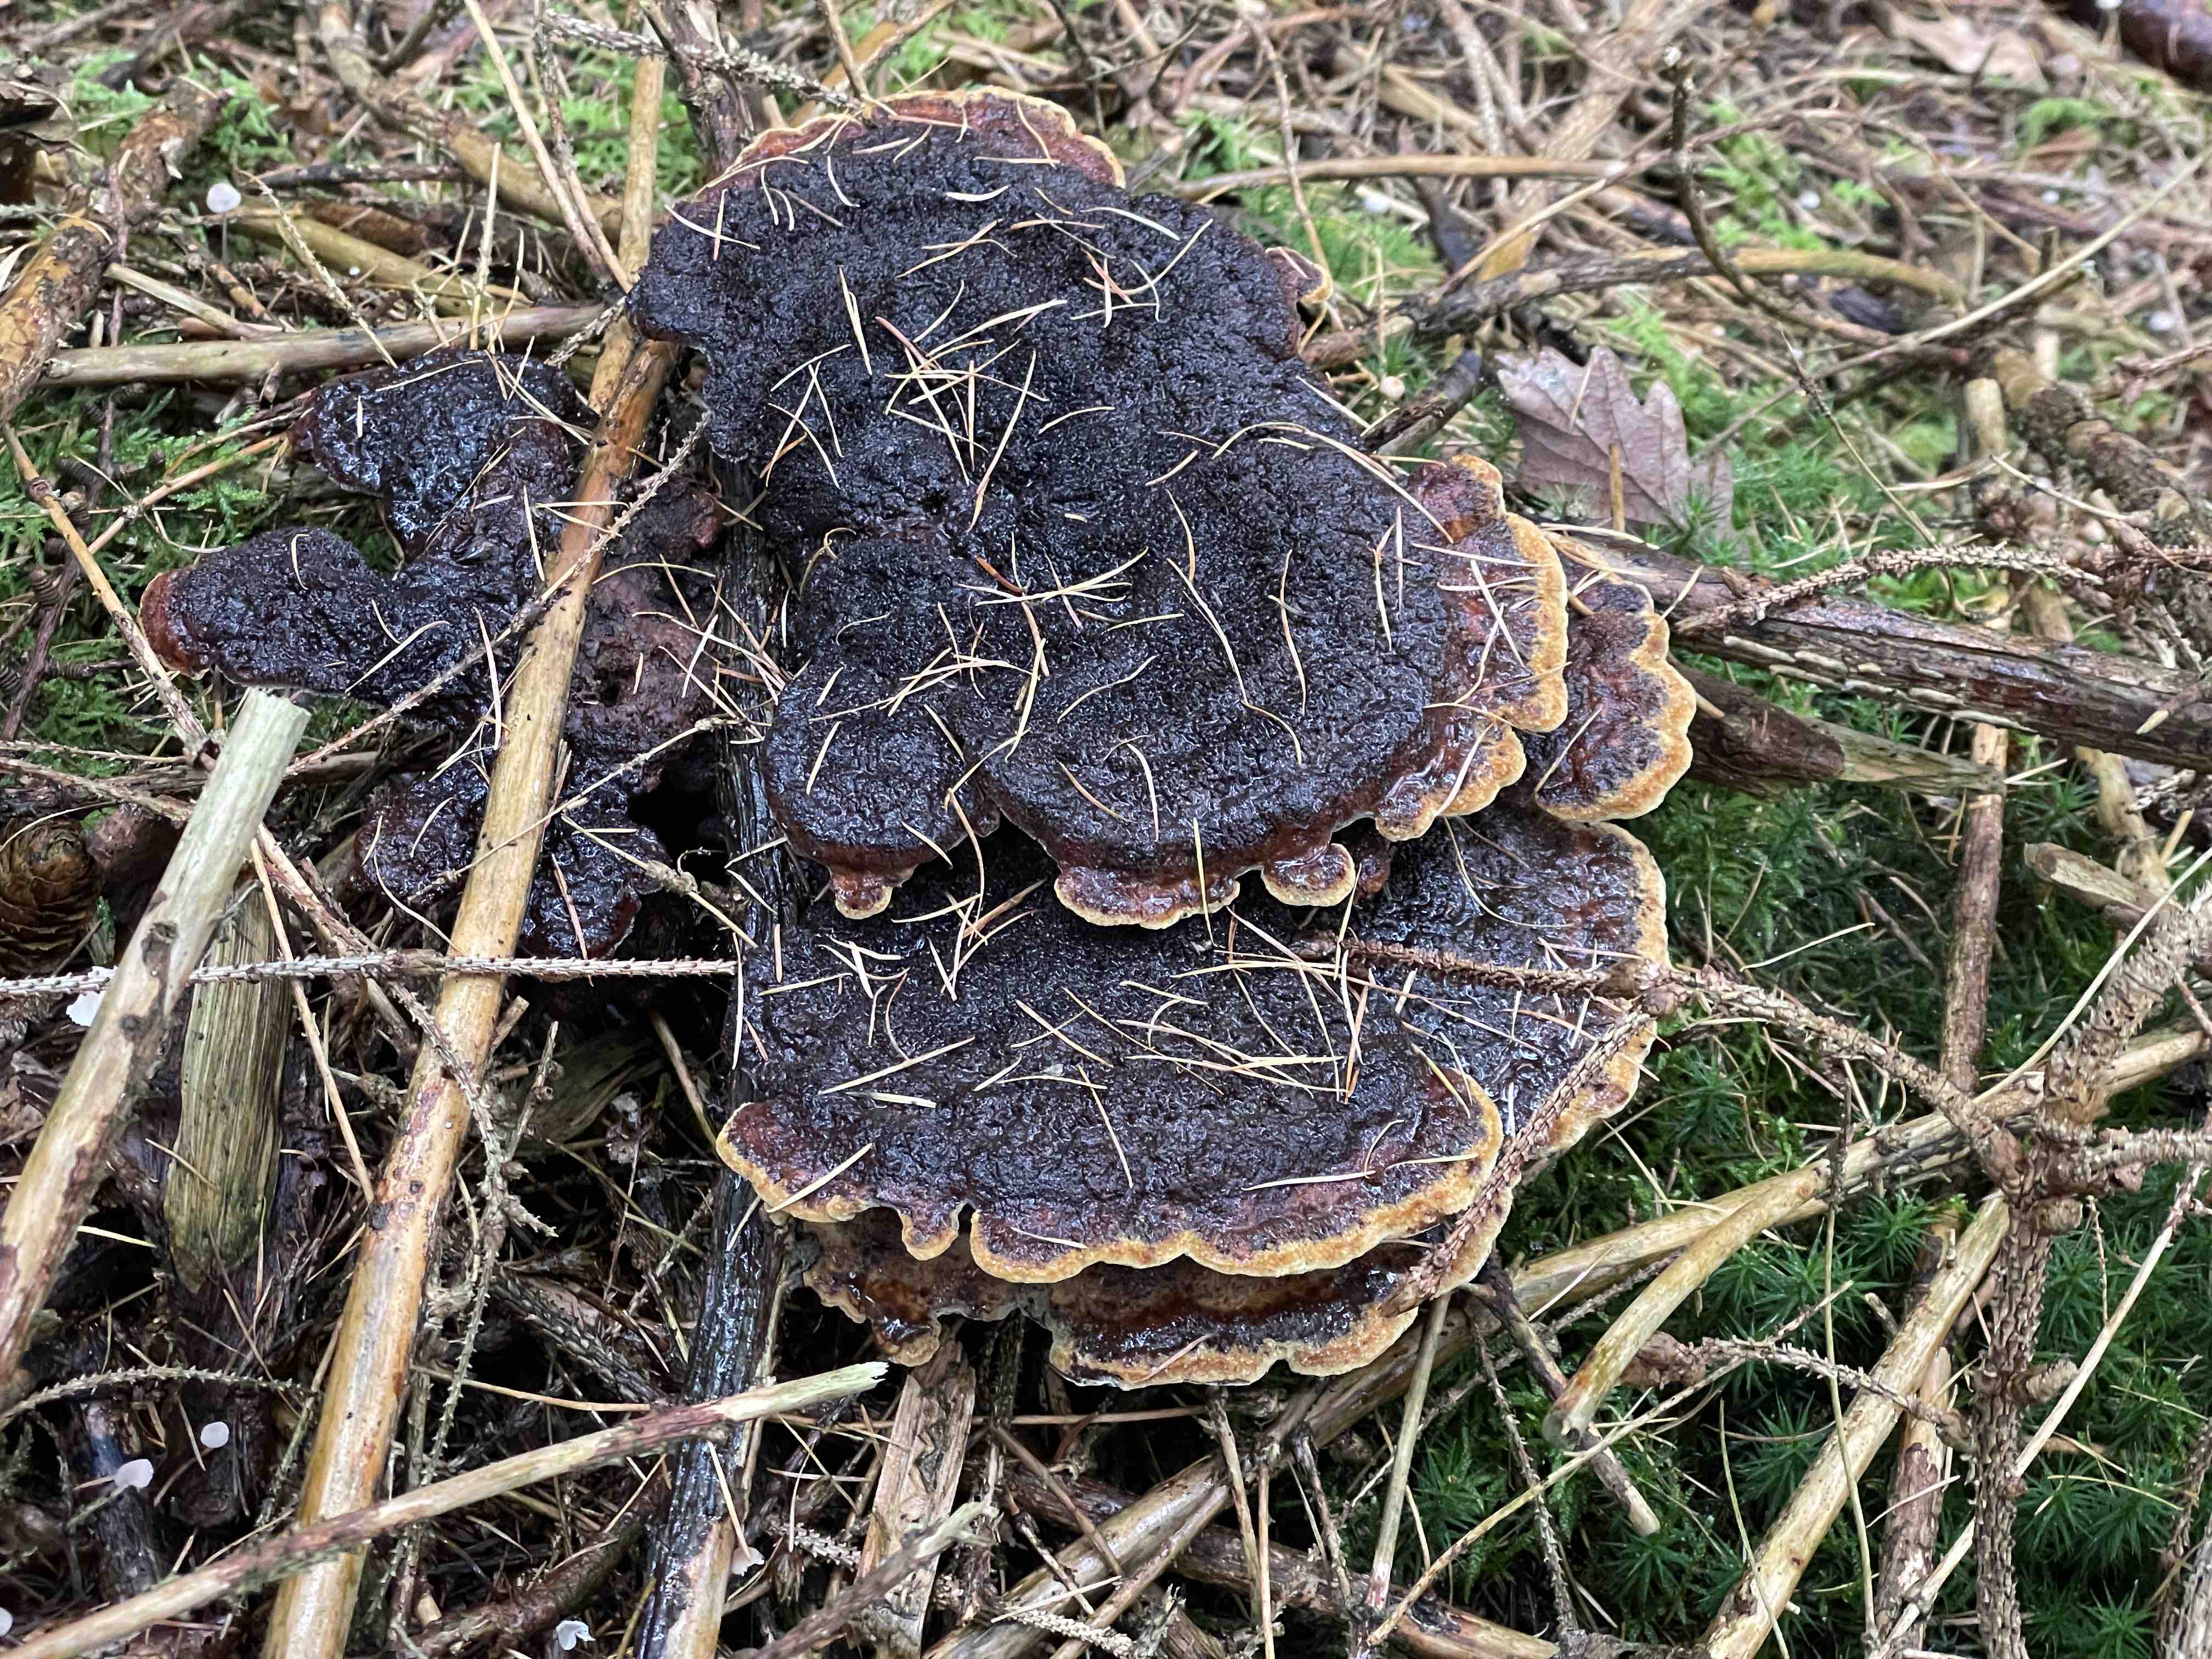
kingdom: Fungi
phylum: Basidiomycota
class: Agaricomycetes
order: Polyporales
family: Laetiporaceae
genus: Phaeolus
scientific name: Phaeolus schweinitzii
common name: brunporesvamp
